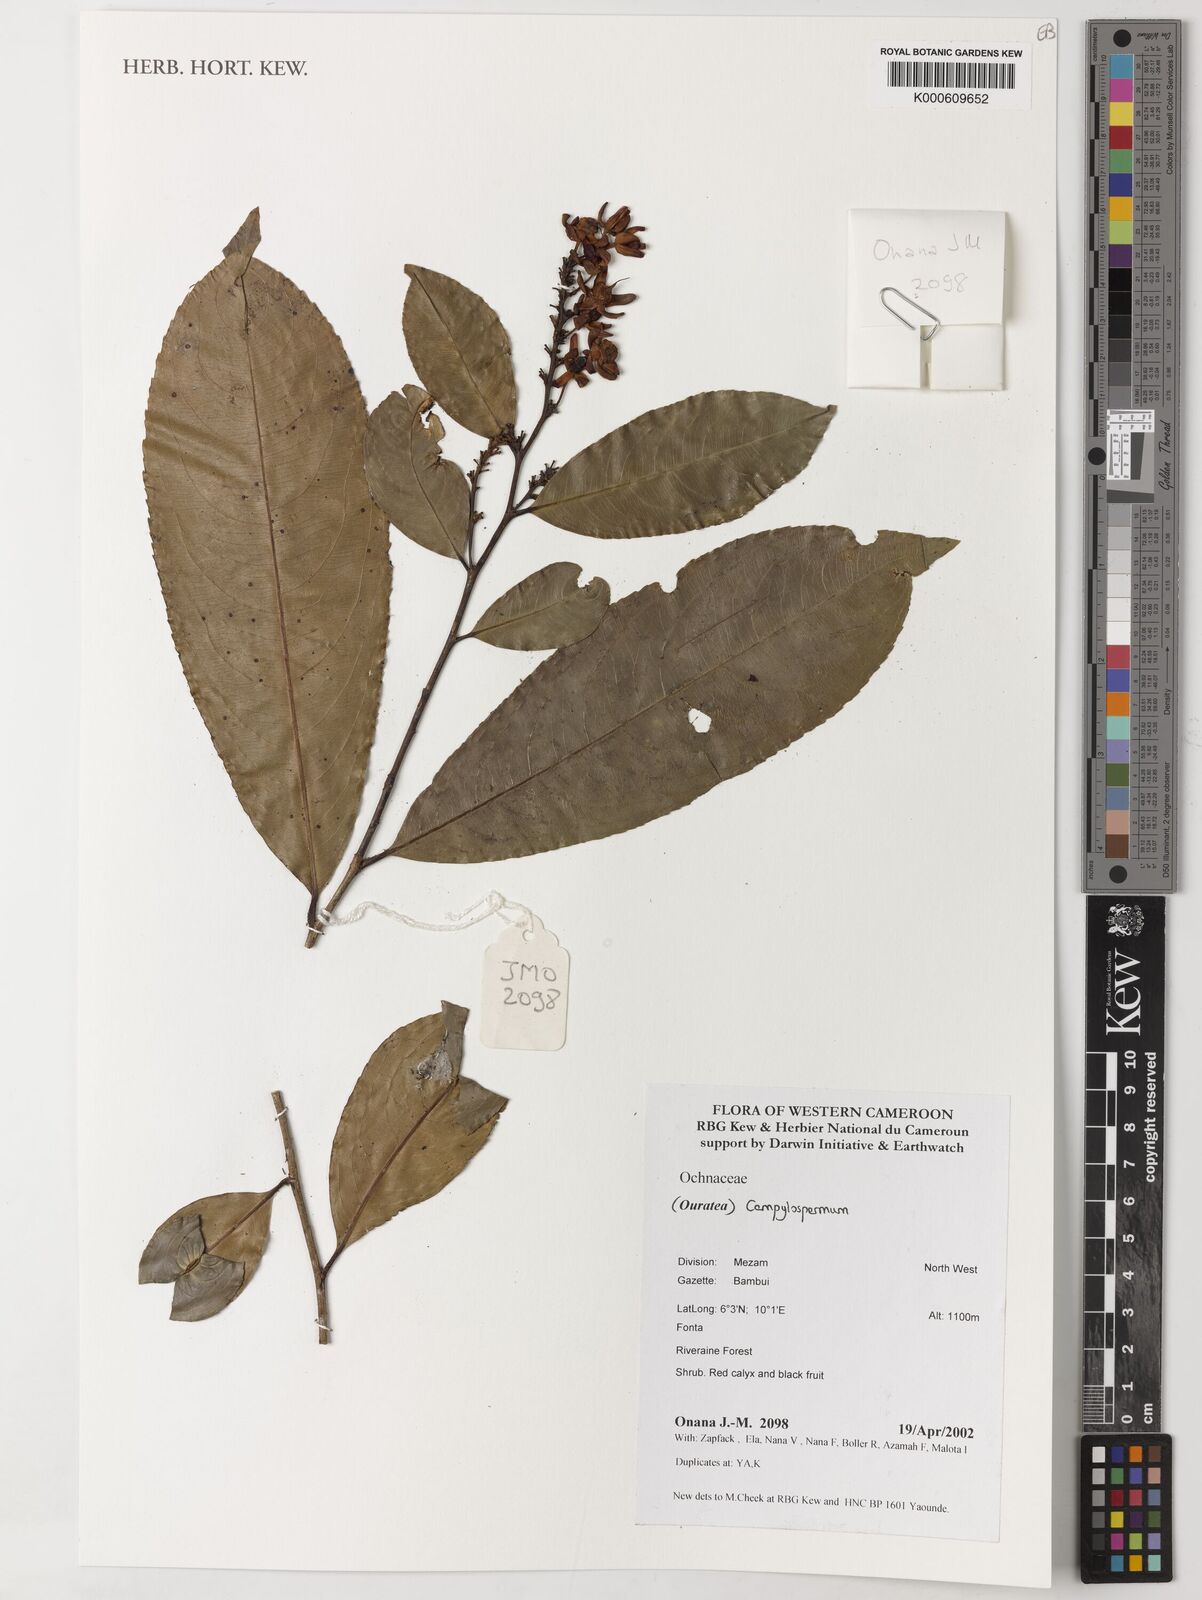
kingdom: Plantae
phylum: Tracheophyta
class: Magnoliopsida
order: Malpighiales
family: Ochnaceae
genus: Campylospermum
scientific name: Campylospermum
